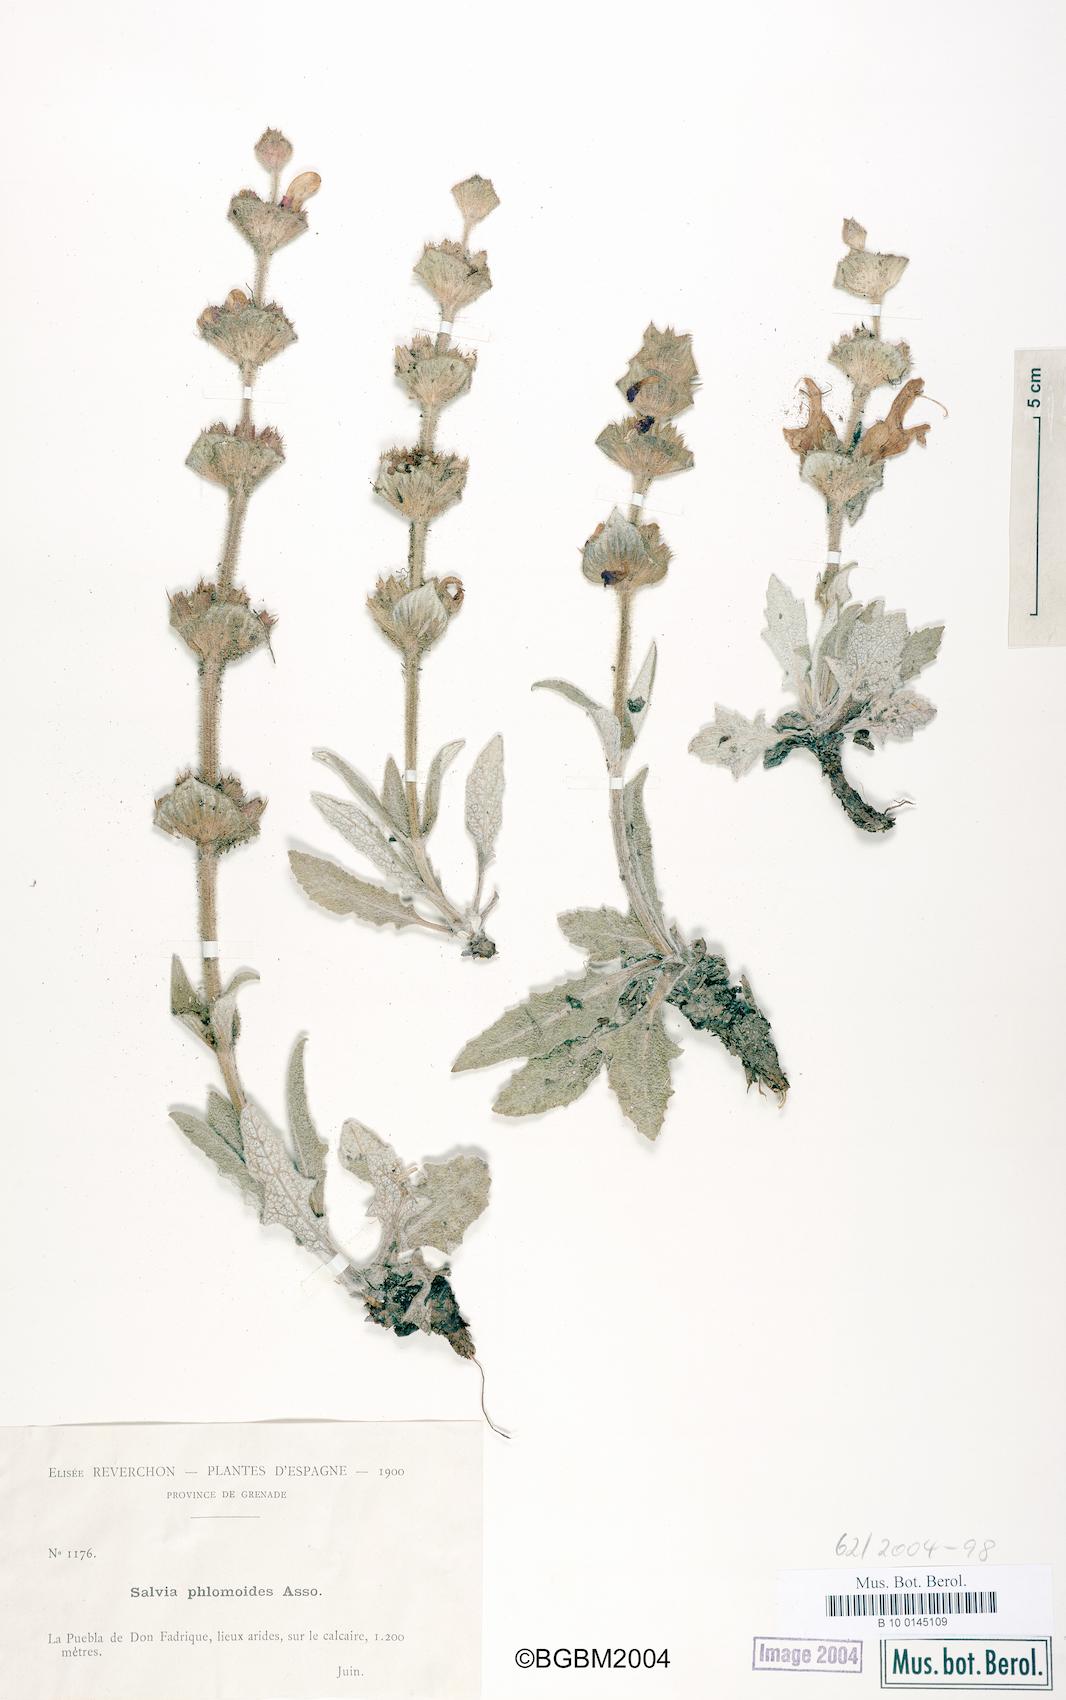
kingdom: Plantae
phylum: Tracheophyta
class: Magnoliopsida
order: Lamiales
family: Lamiaceae
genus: Salvia
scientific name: Salvia phlomoides
